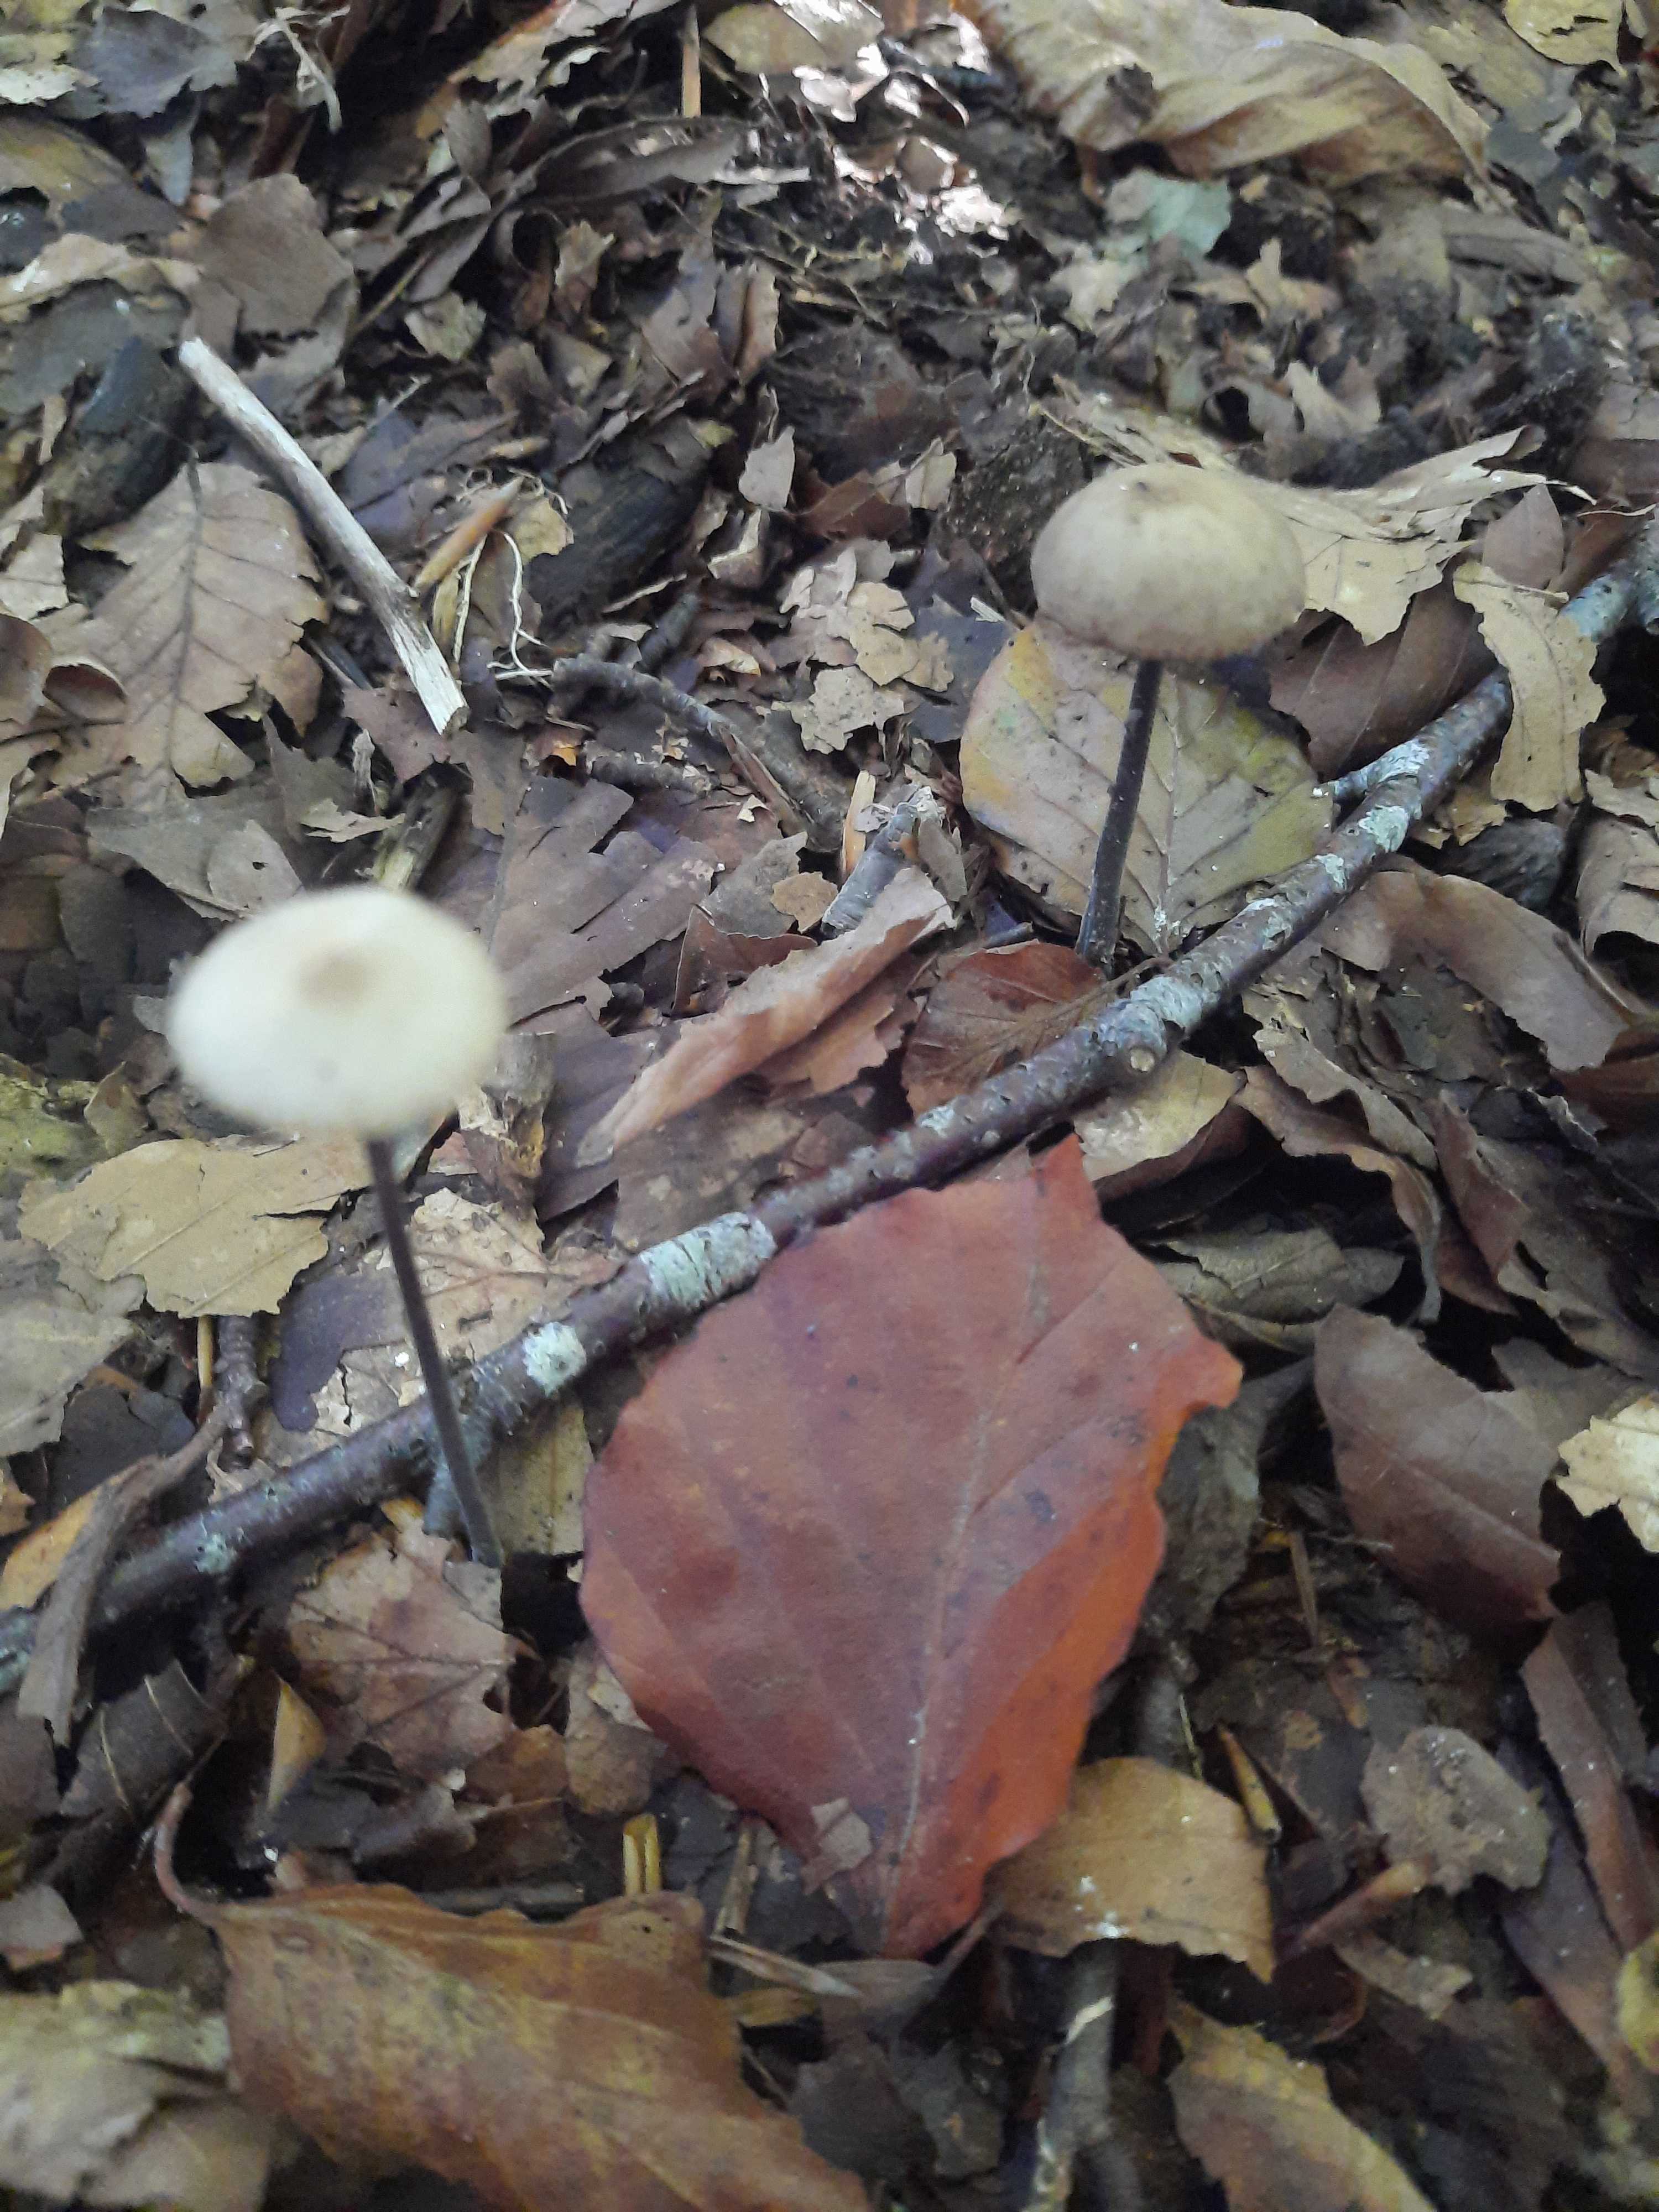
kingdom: Fungi
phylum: Basidiomycota
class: Agaricomycetes
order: Agaricales
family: Omphalotaceae
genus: Mycetinis
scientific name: Mycetinis alliaceus
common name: stor løghat
